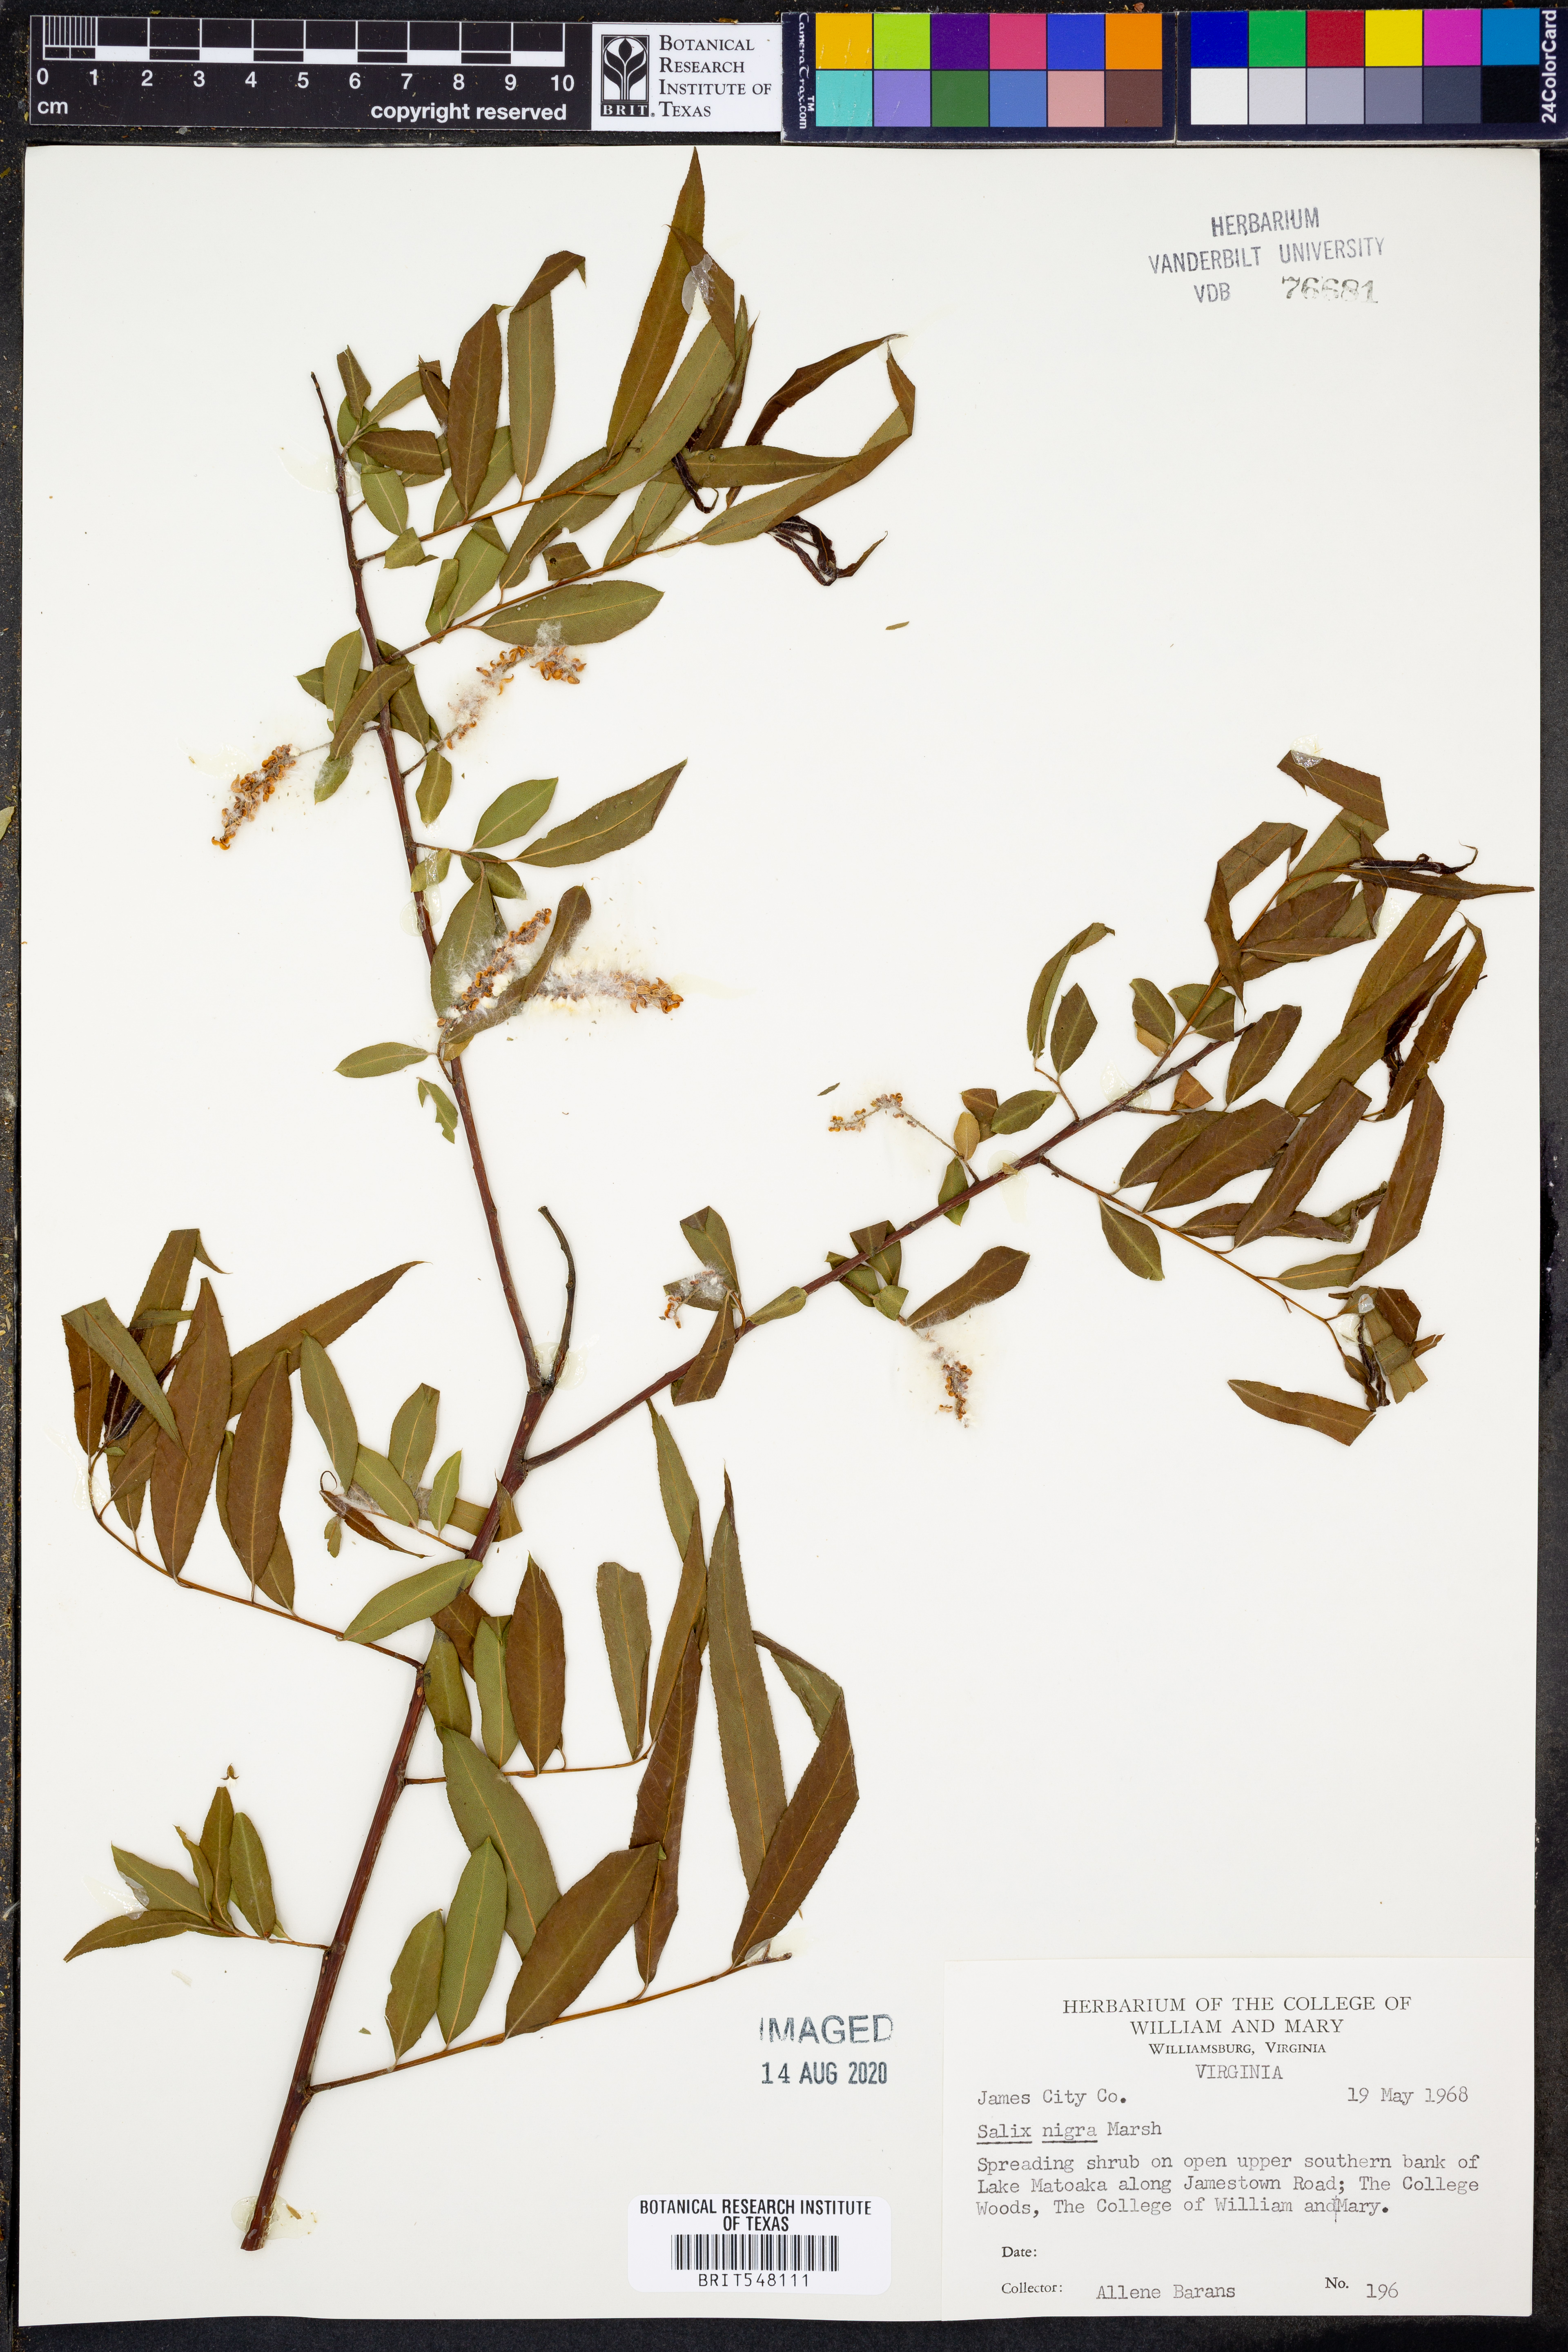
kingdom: Plantae
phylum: Tracheophyta
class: Magnoliopsida
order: Malpighiales
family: Salicaceae
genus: Salix
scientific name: Salix nigra
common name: Black willow
